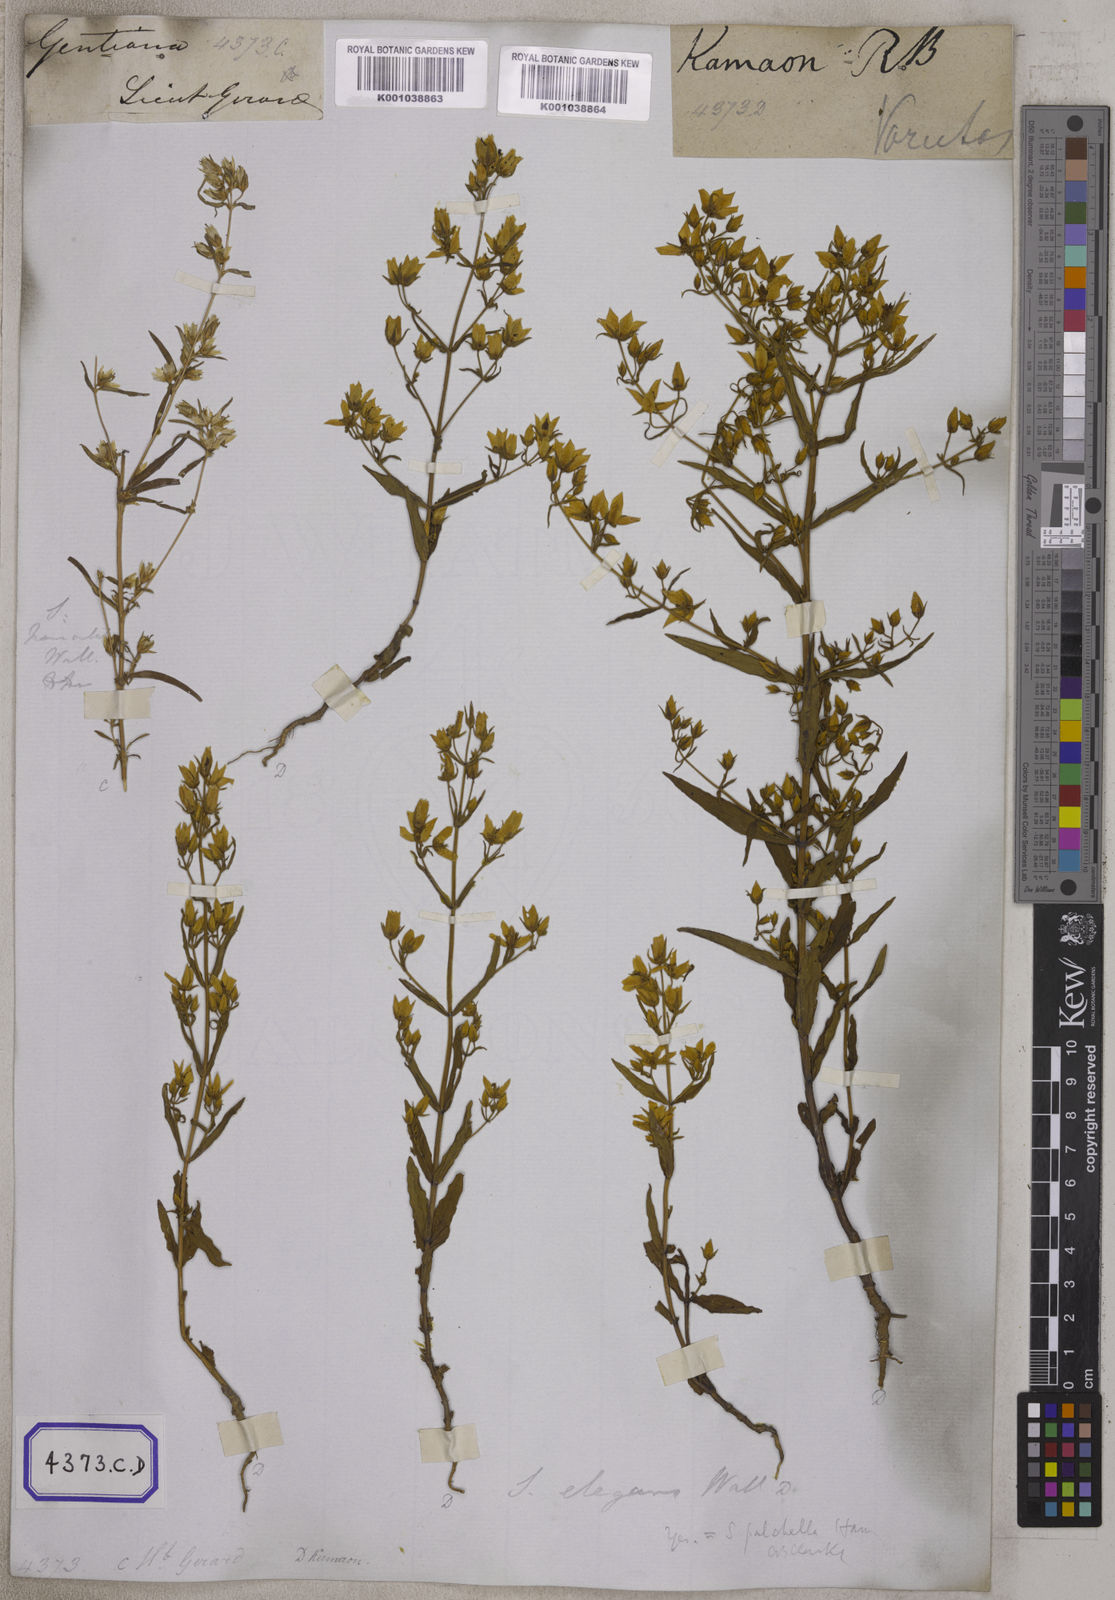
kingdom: Plantae
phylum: Tracheophyta
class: Magnoliopsida
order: Gentianales
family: Gentianaceae
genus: Swertia
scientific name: Swertia angustifolia
